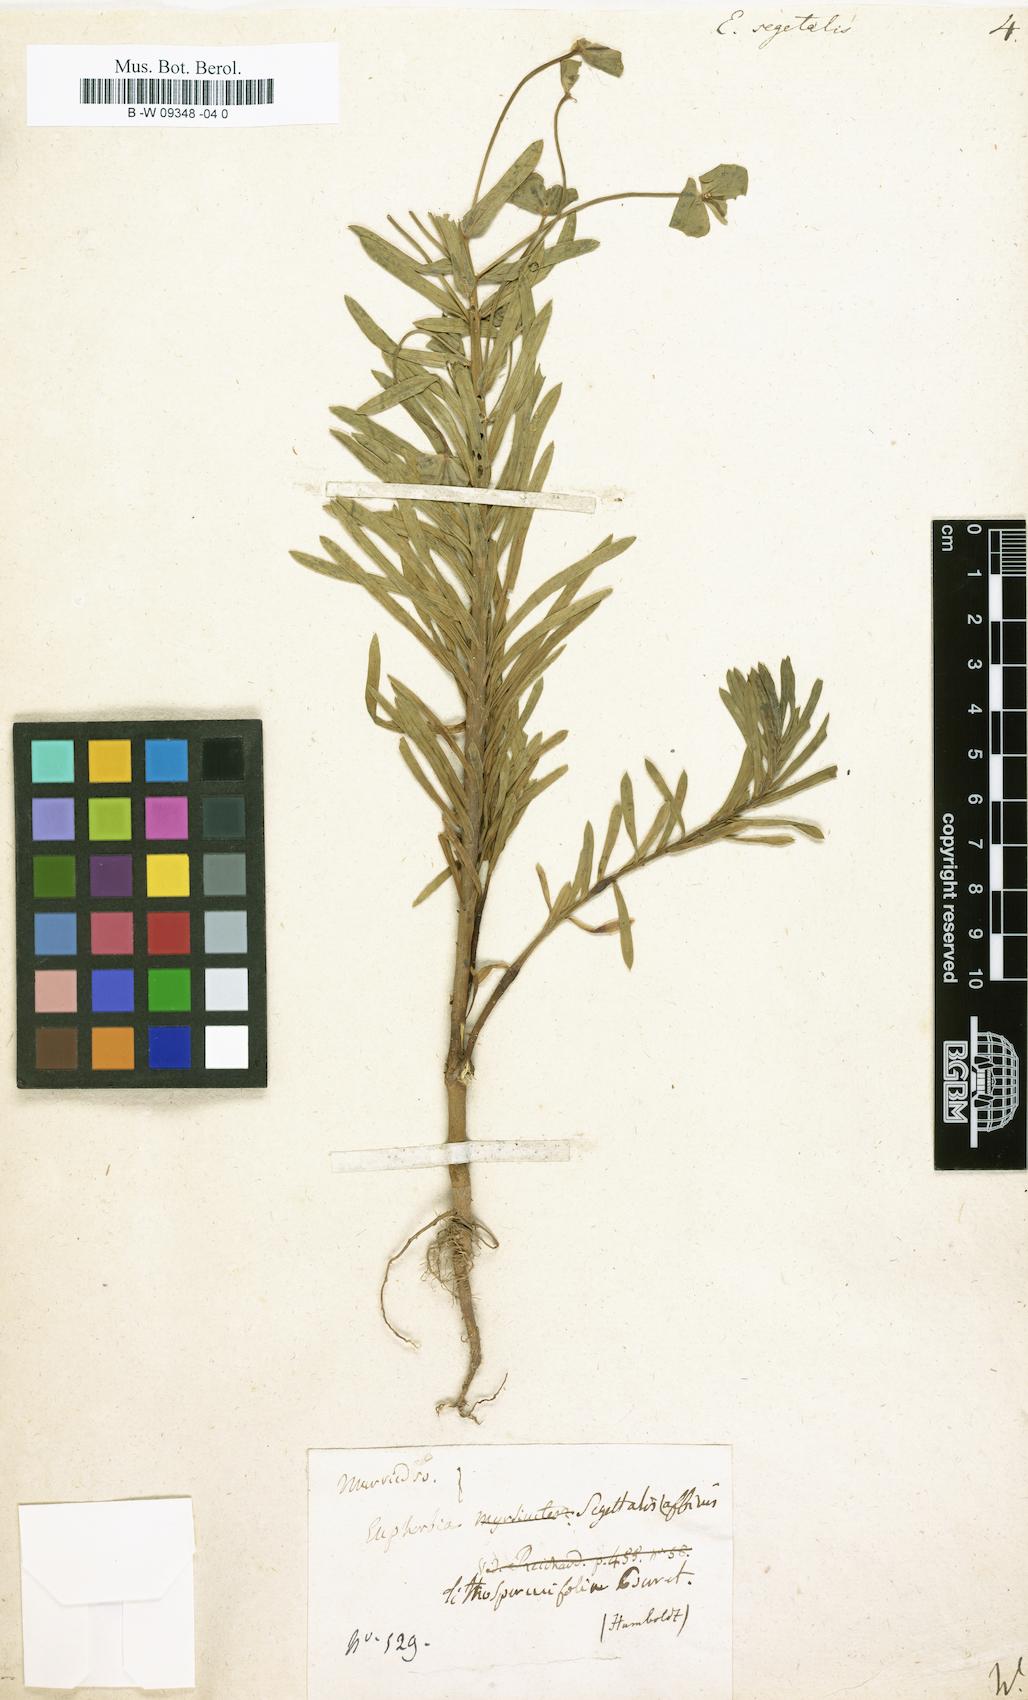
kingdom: Plantae
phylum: Tracheophyta
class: Magnoliopsida
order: Malpighiales
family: Euphorbiaceae
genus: Euphorbia
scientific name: Euphorbia segetalis
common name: Corn spurge
